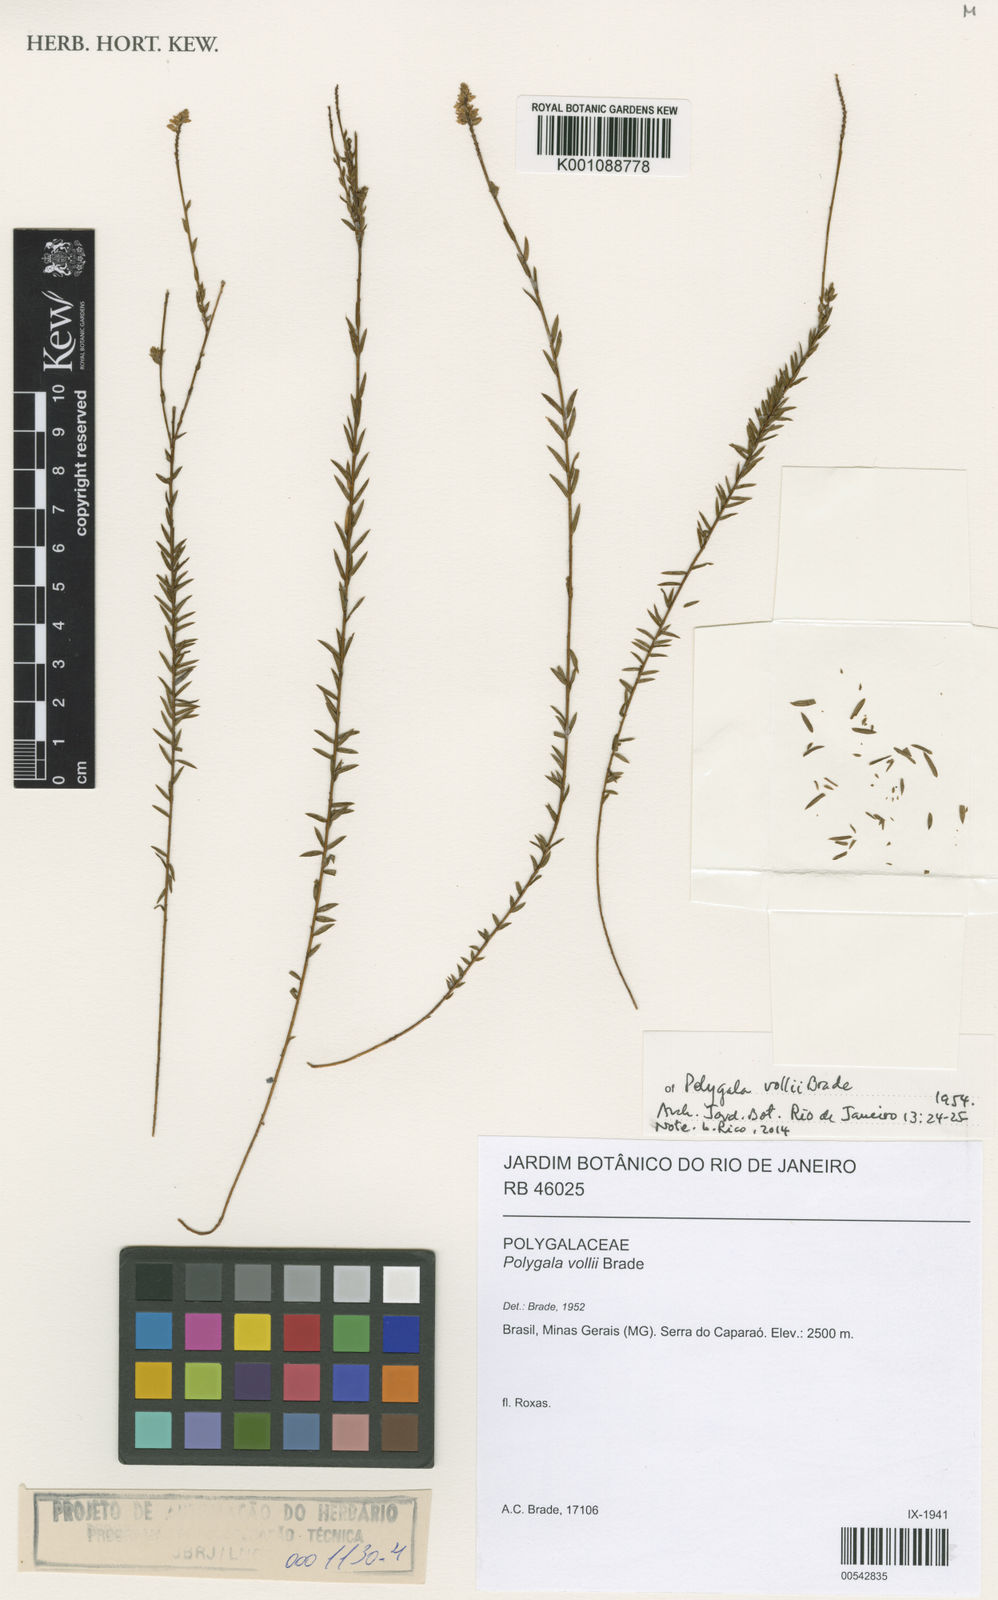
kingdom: Plantae
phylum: Tracheophyta
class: Magnoliopsida
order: Fabales
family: Polygalaceae
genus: Polygala
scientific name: Polygala vollii
